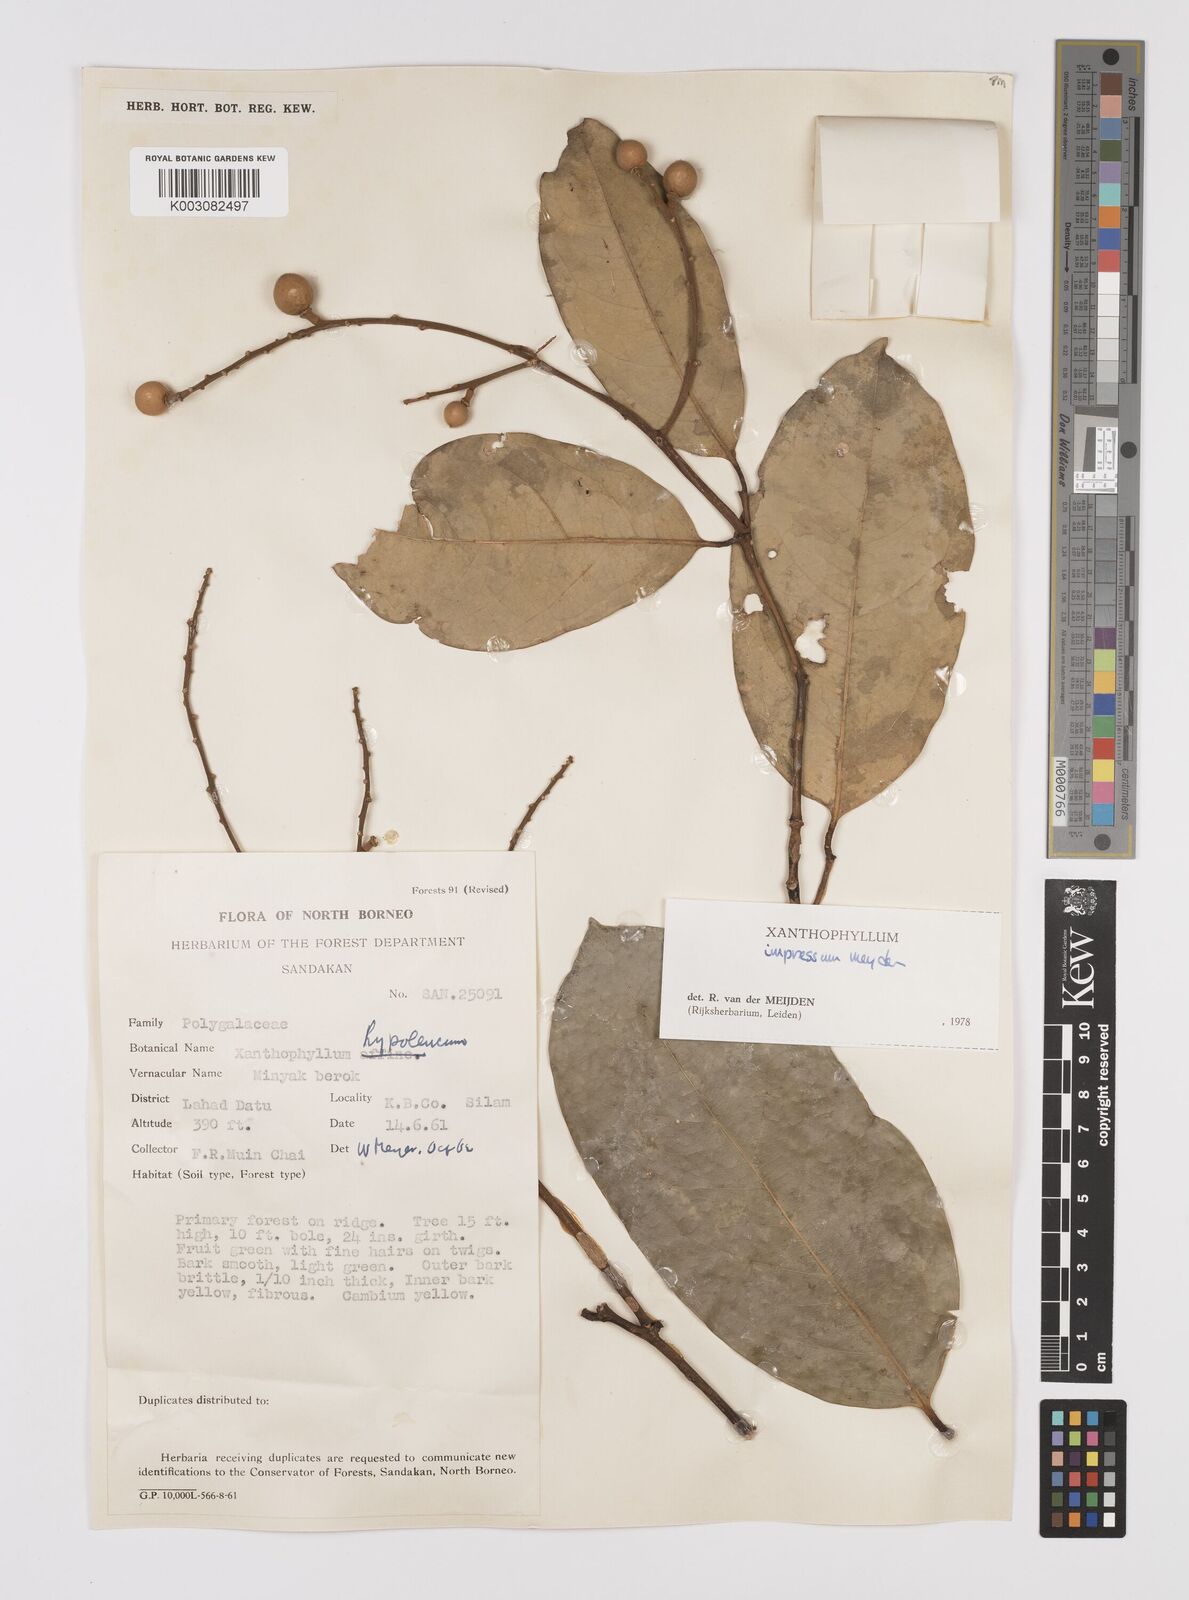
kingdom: Plantae
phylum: Tracheophyta
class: Magnoliopsida
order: Fabales
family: Polygalaceae
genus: Xanthophyllum
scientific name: Xanthophyllum impressum
